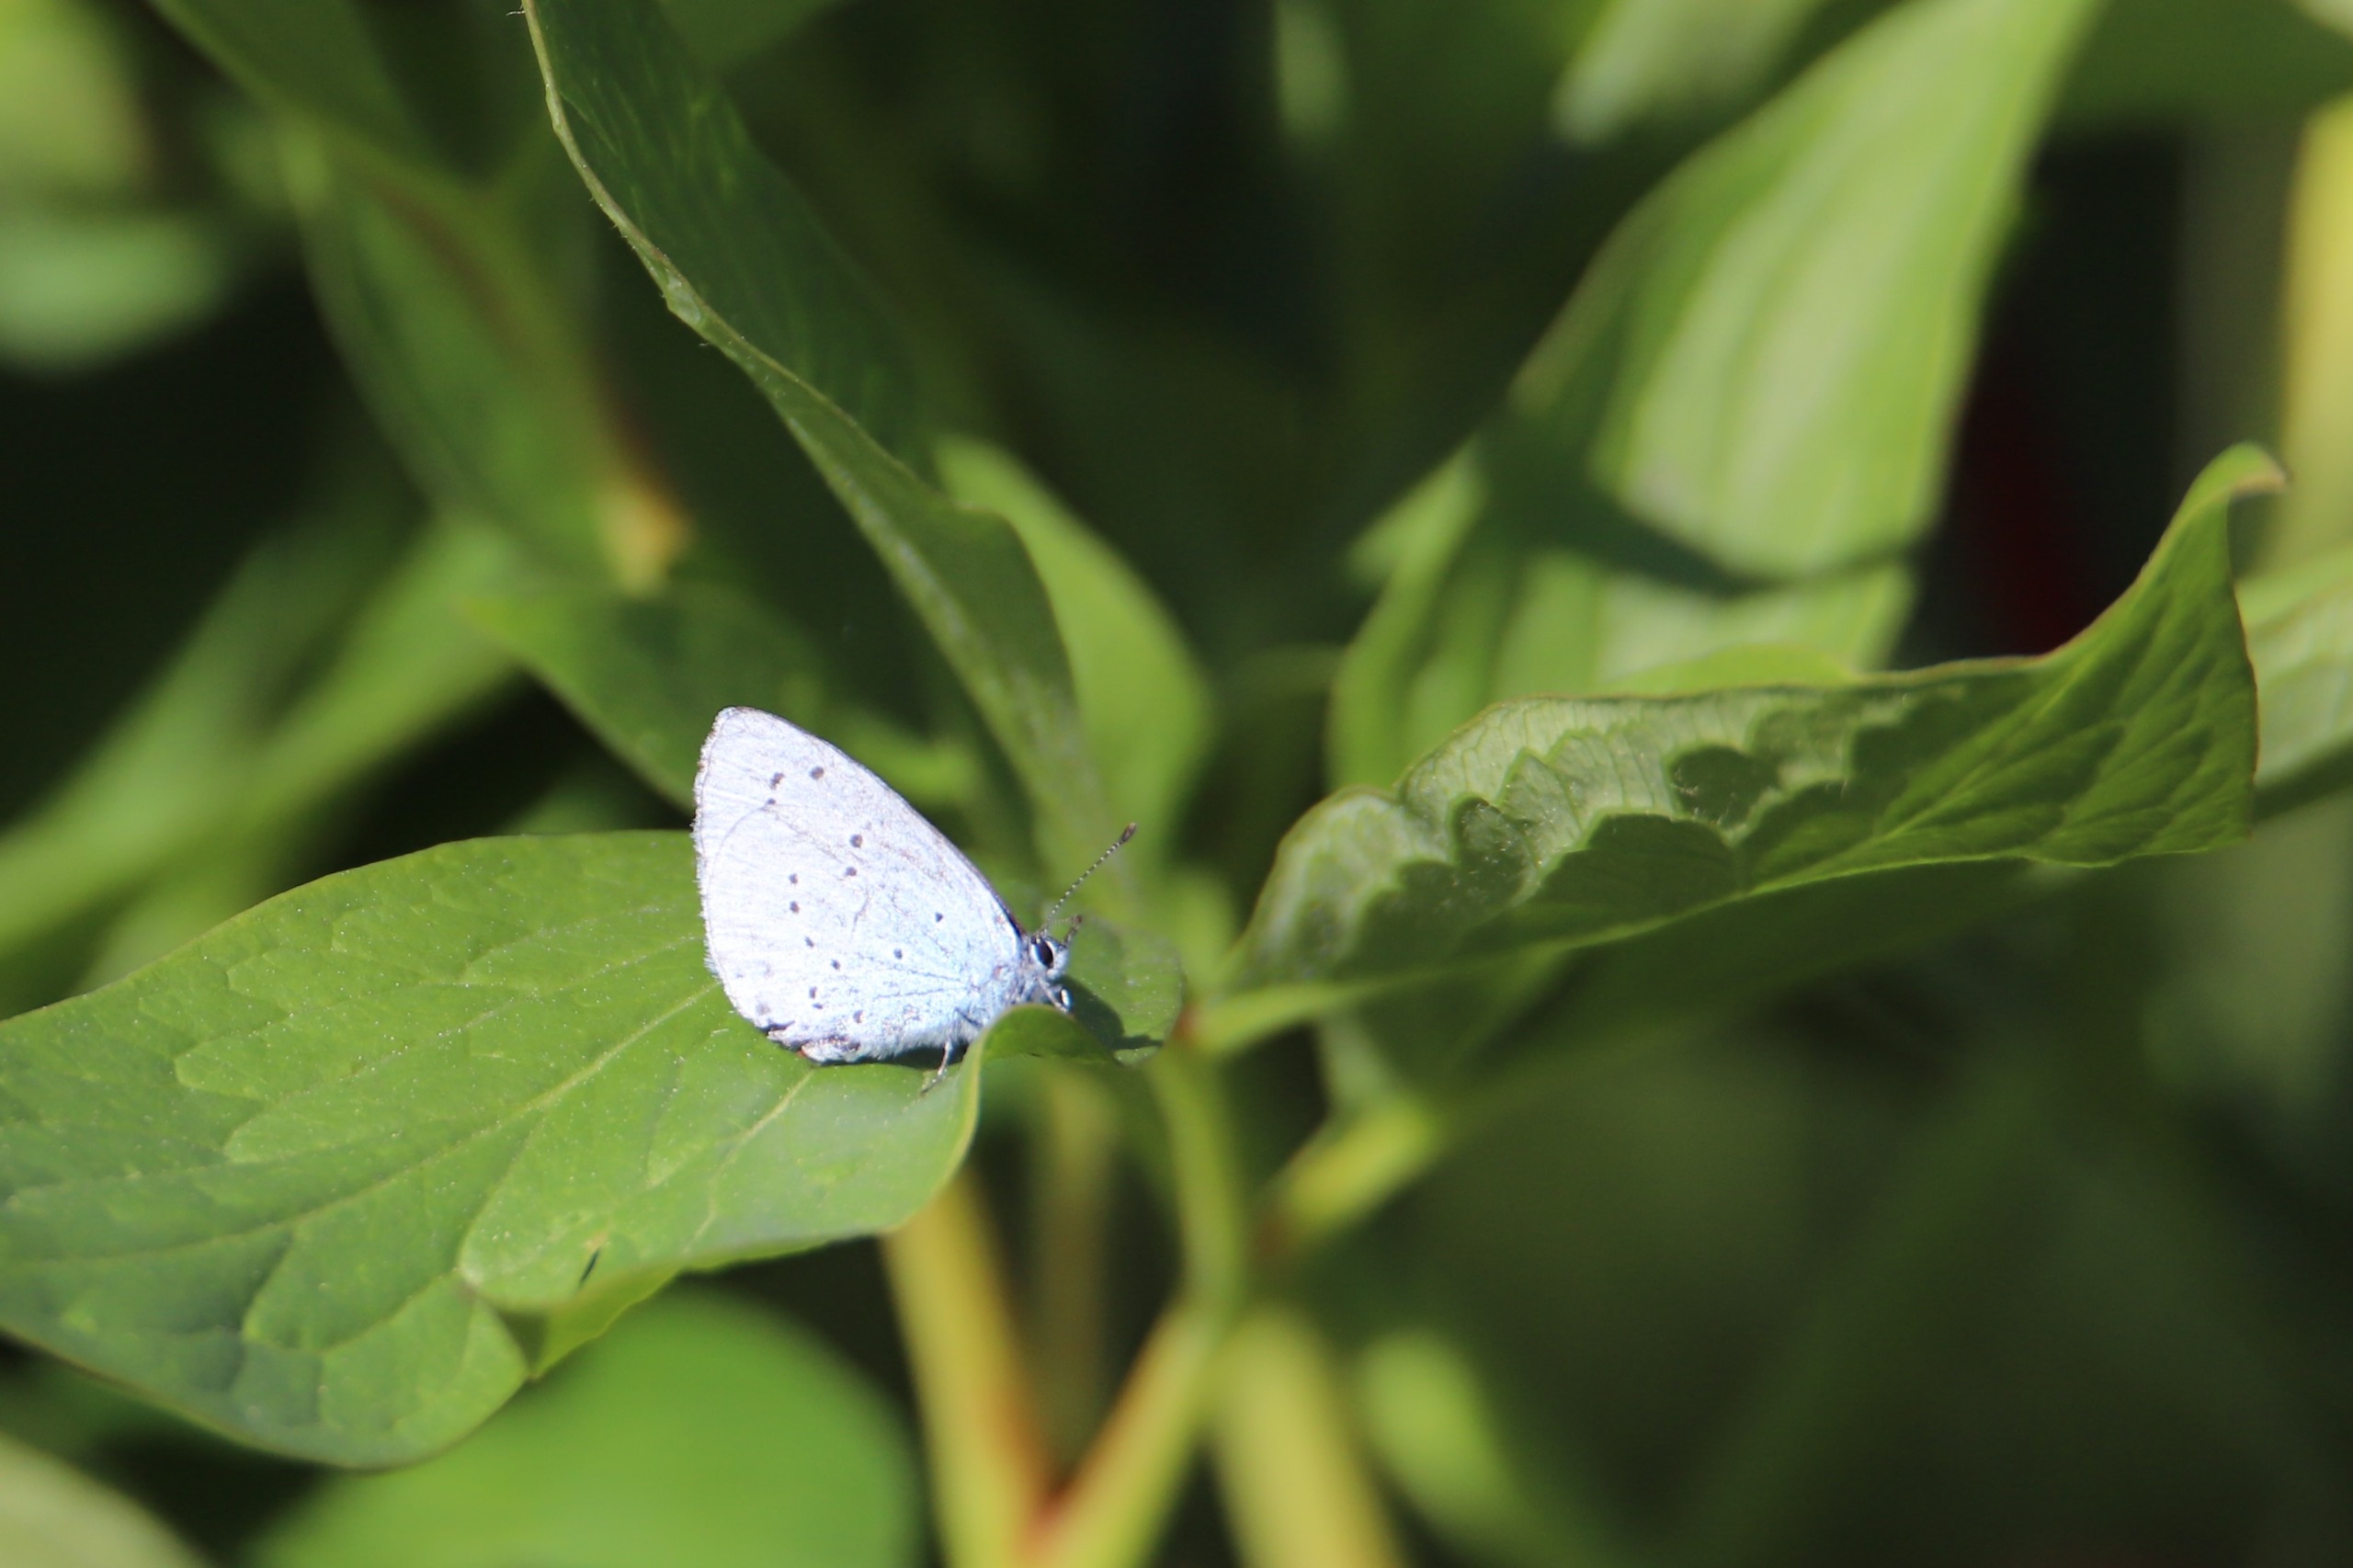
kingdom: Animalia
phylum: Arthropoda
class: Insecta
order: Lepidoptera
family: Lycaenidae
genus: Celastrina
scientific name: Celastrina argiolus
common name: Skovblåfugl
